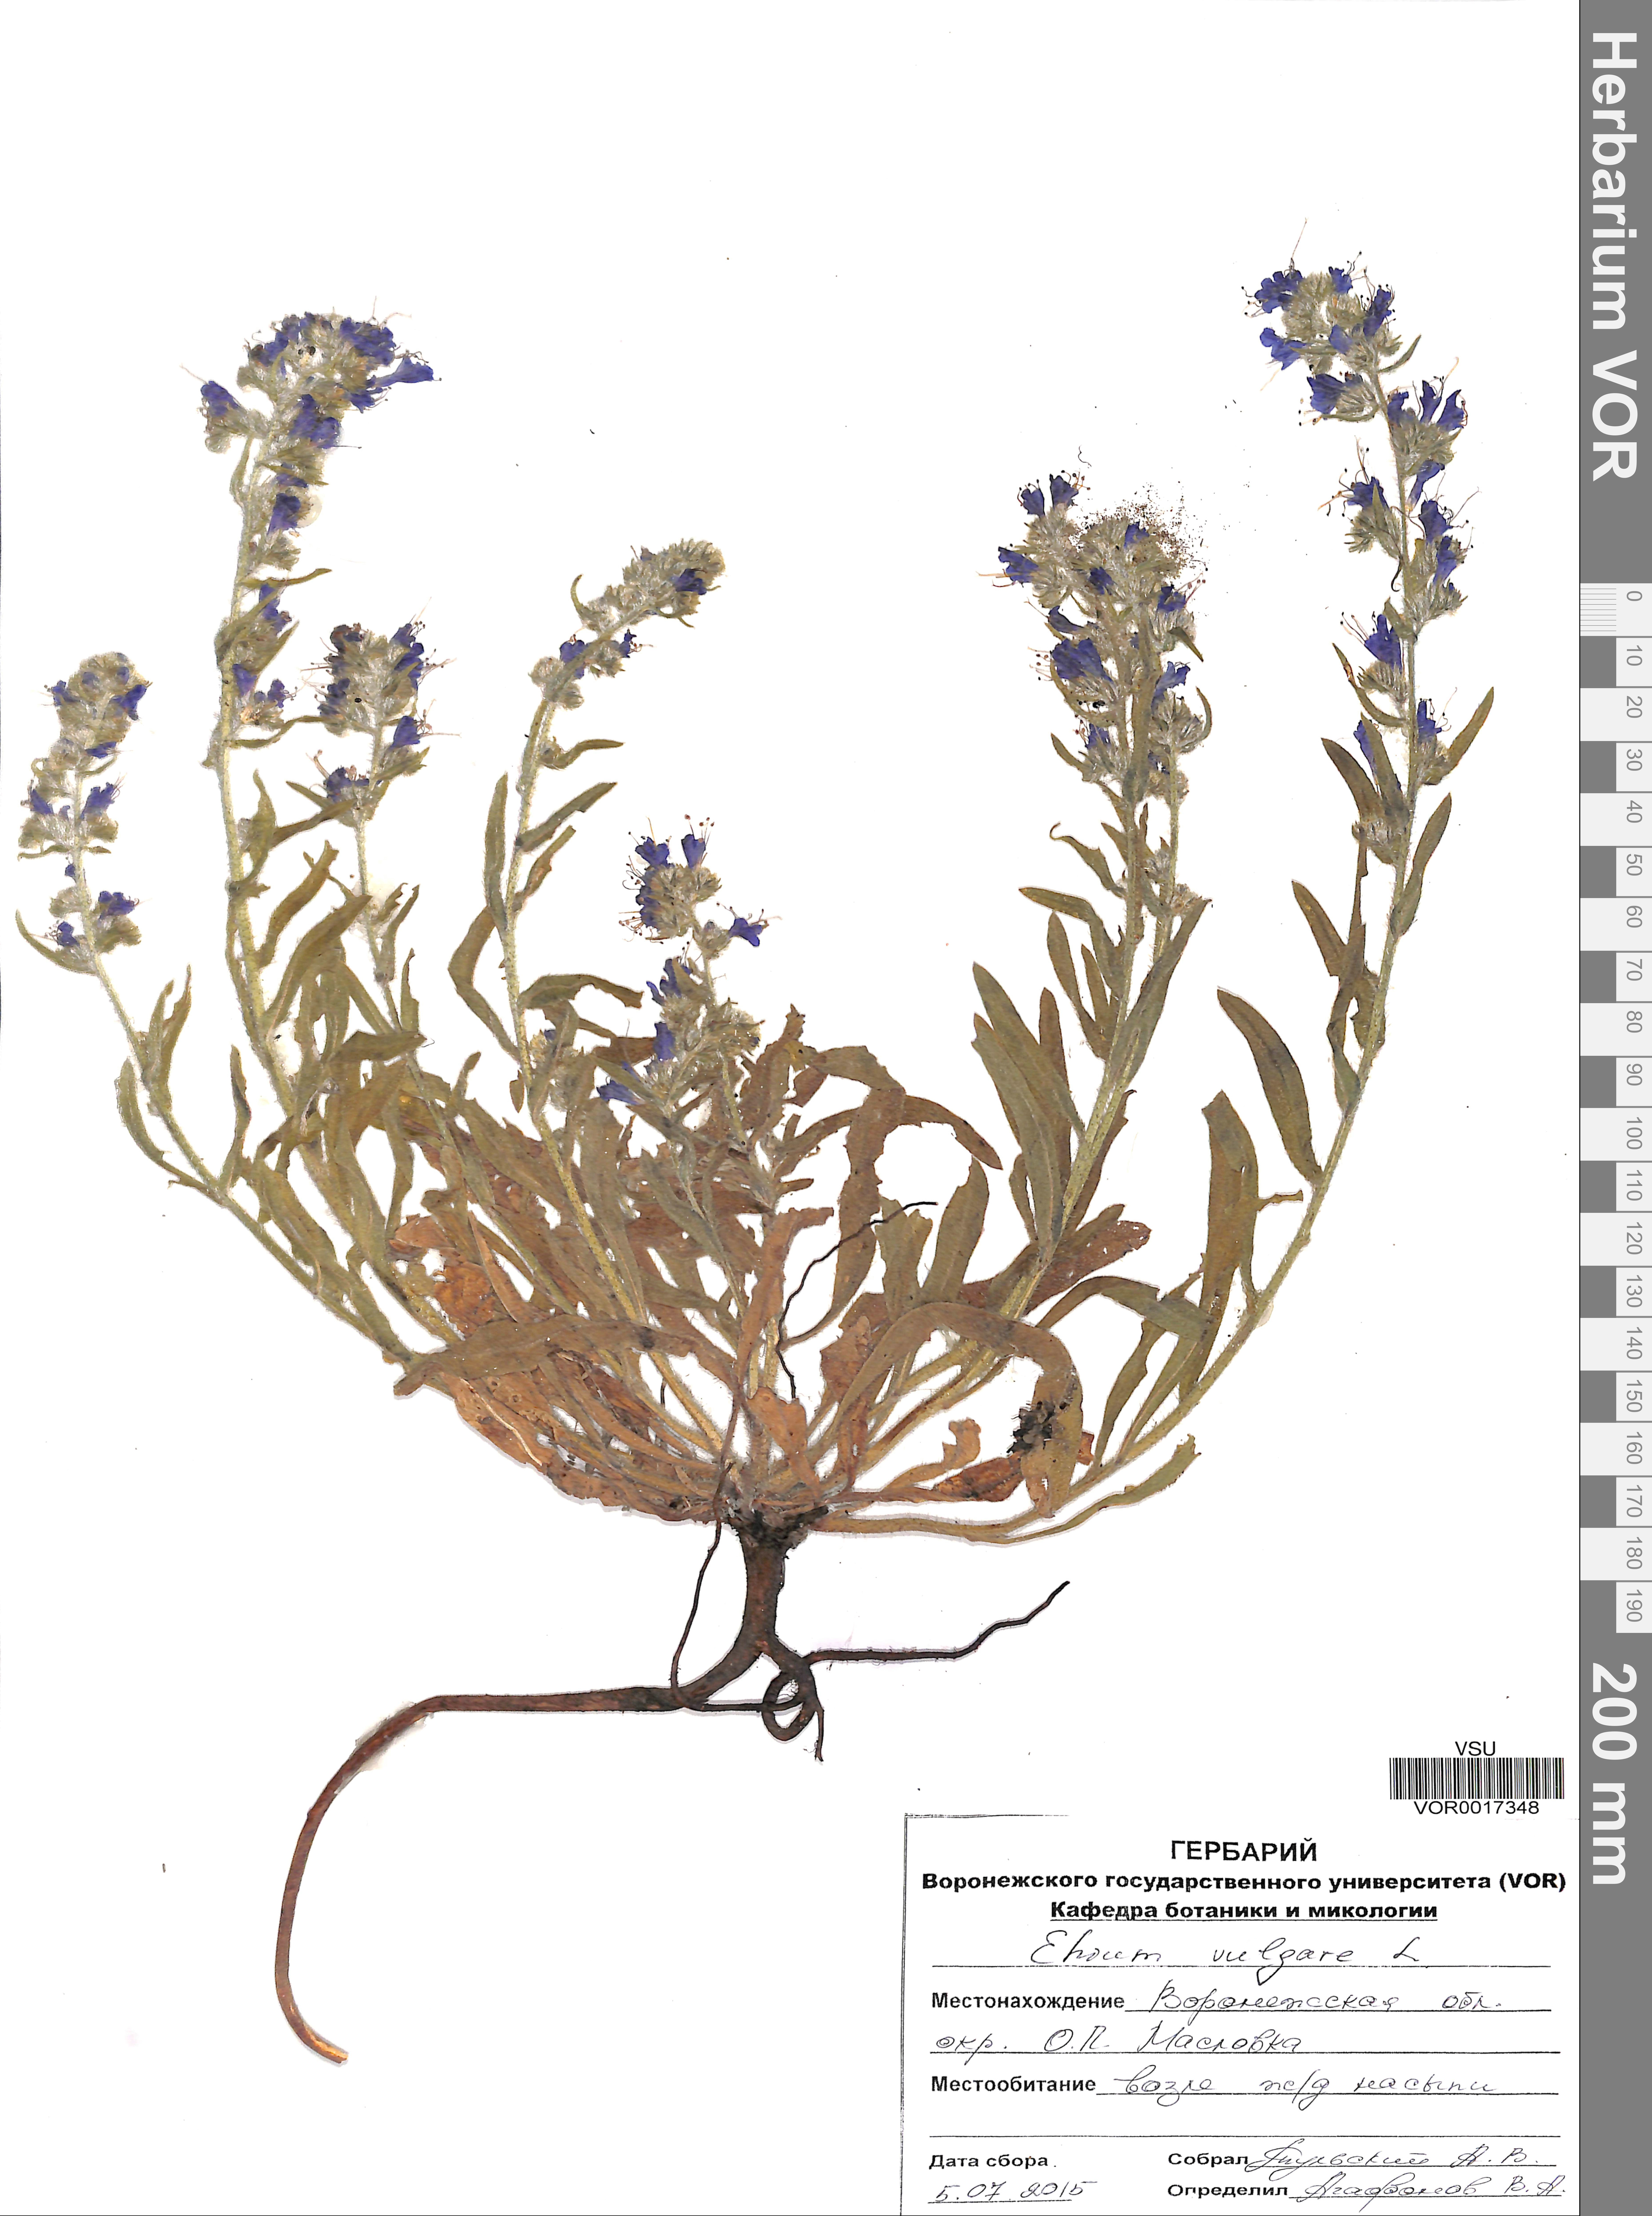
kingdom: Plantae
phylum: Tracheophyta
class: Magnoliopsida
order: Boraginales
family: Boraginaceae
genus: Echium
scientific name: Echium vulgare
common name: Common viper's bugloss
